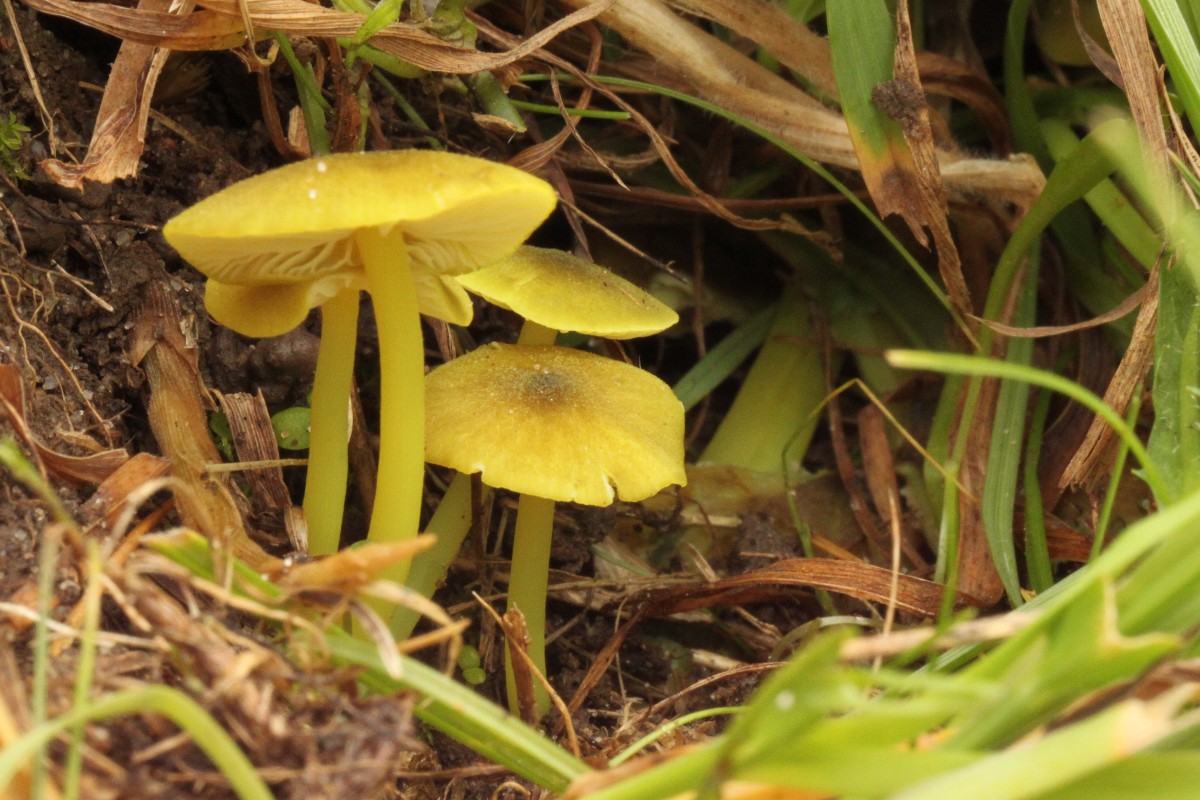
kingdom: Fungi
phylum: Basidiomycota
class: Agaricomycetes
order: Agaricales
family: Entolomataceae
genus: Entoloma
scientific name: Entoloma incanum
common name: grøngul rødblad
